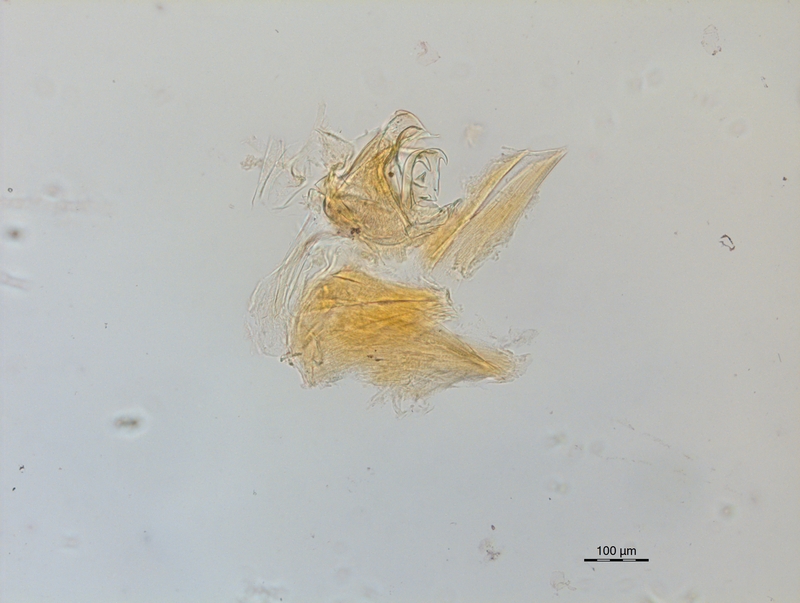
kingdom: Animalia
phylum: Arthropoda
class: Diplopoda
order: Chordeumatida
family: Craspedosomatidae
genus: Ochogona
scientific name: Ochogona pusilla
